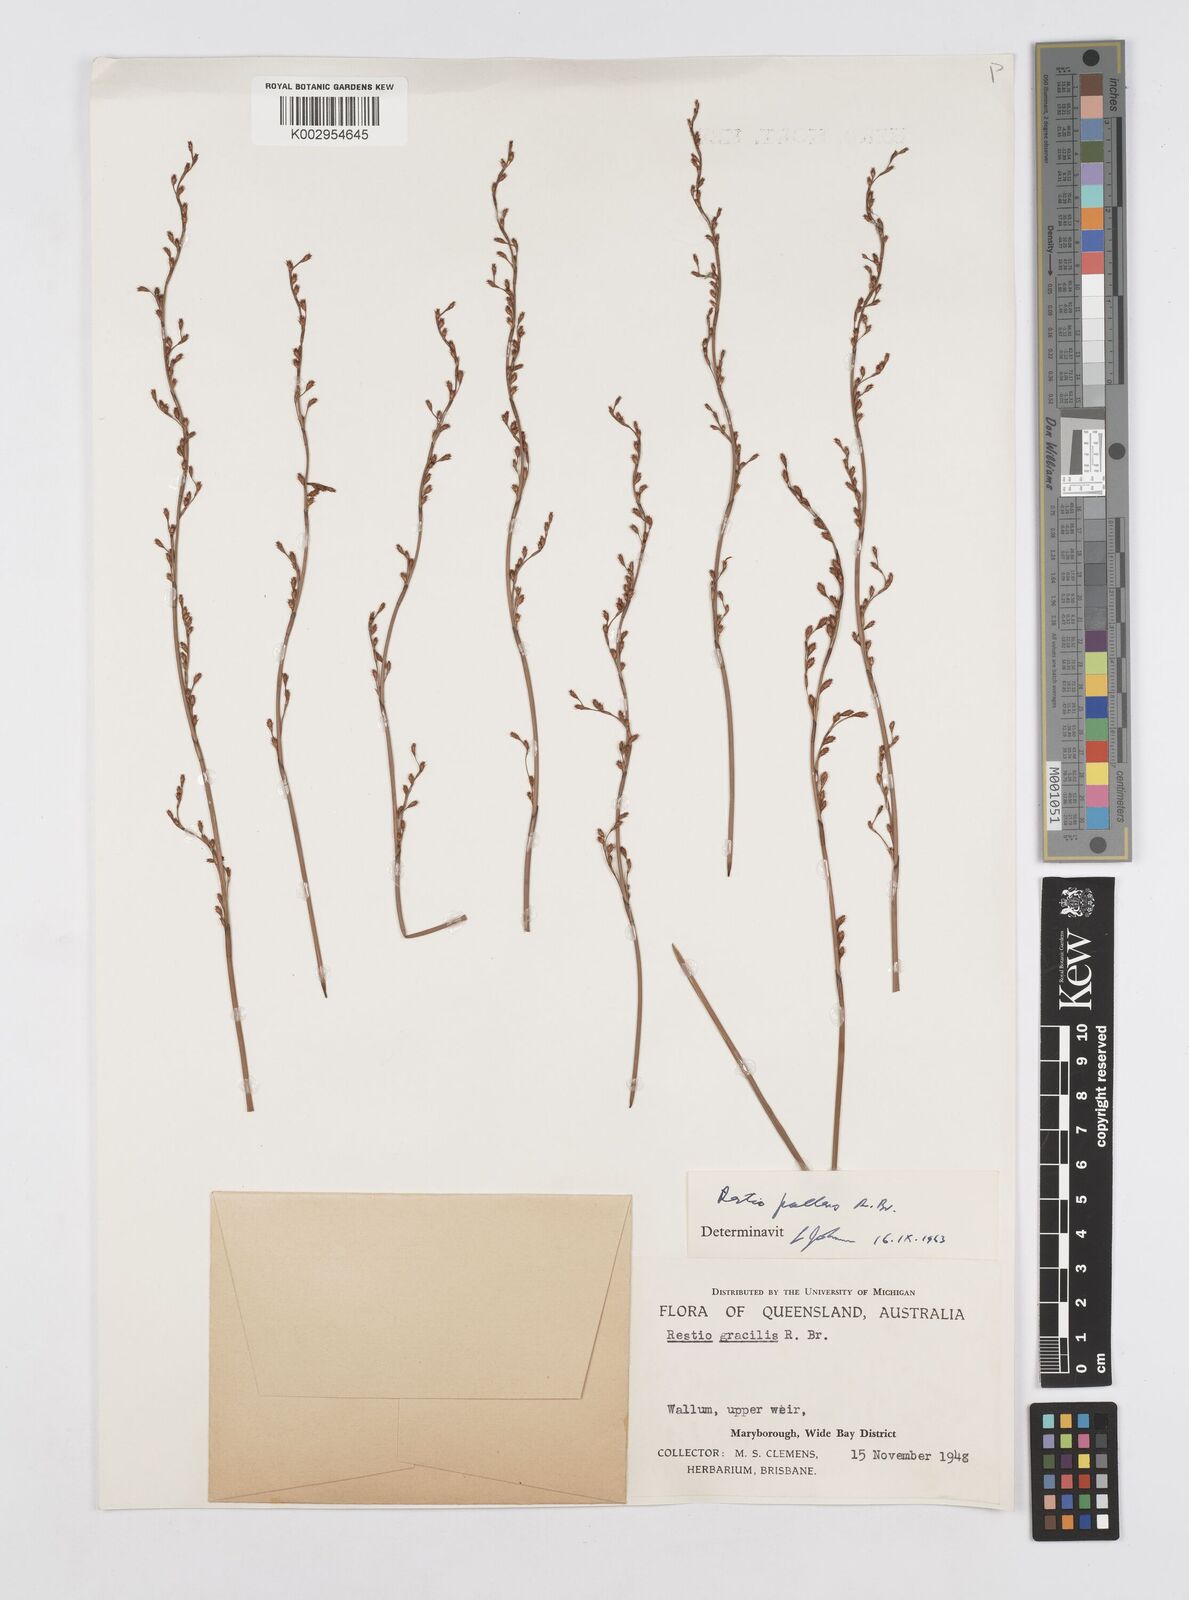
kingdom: Plantae
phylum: Tracheophyta
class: Liliopsida
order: Poales
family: Restionaceae
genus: Baloskion
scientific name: Baloskion pallens
